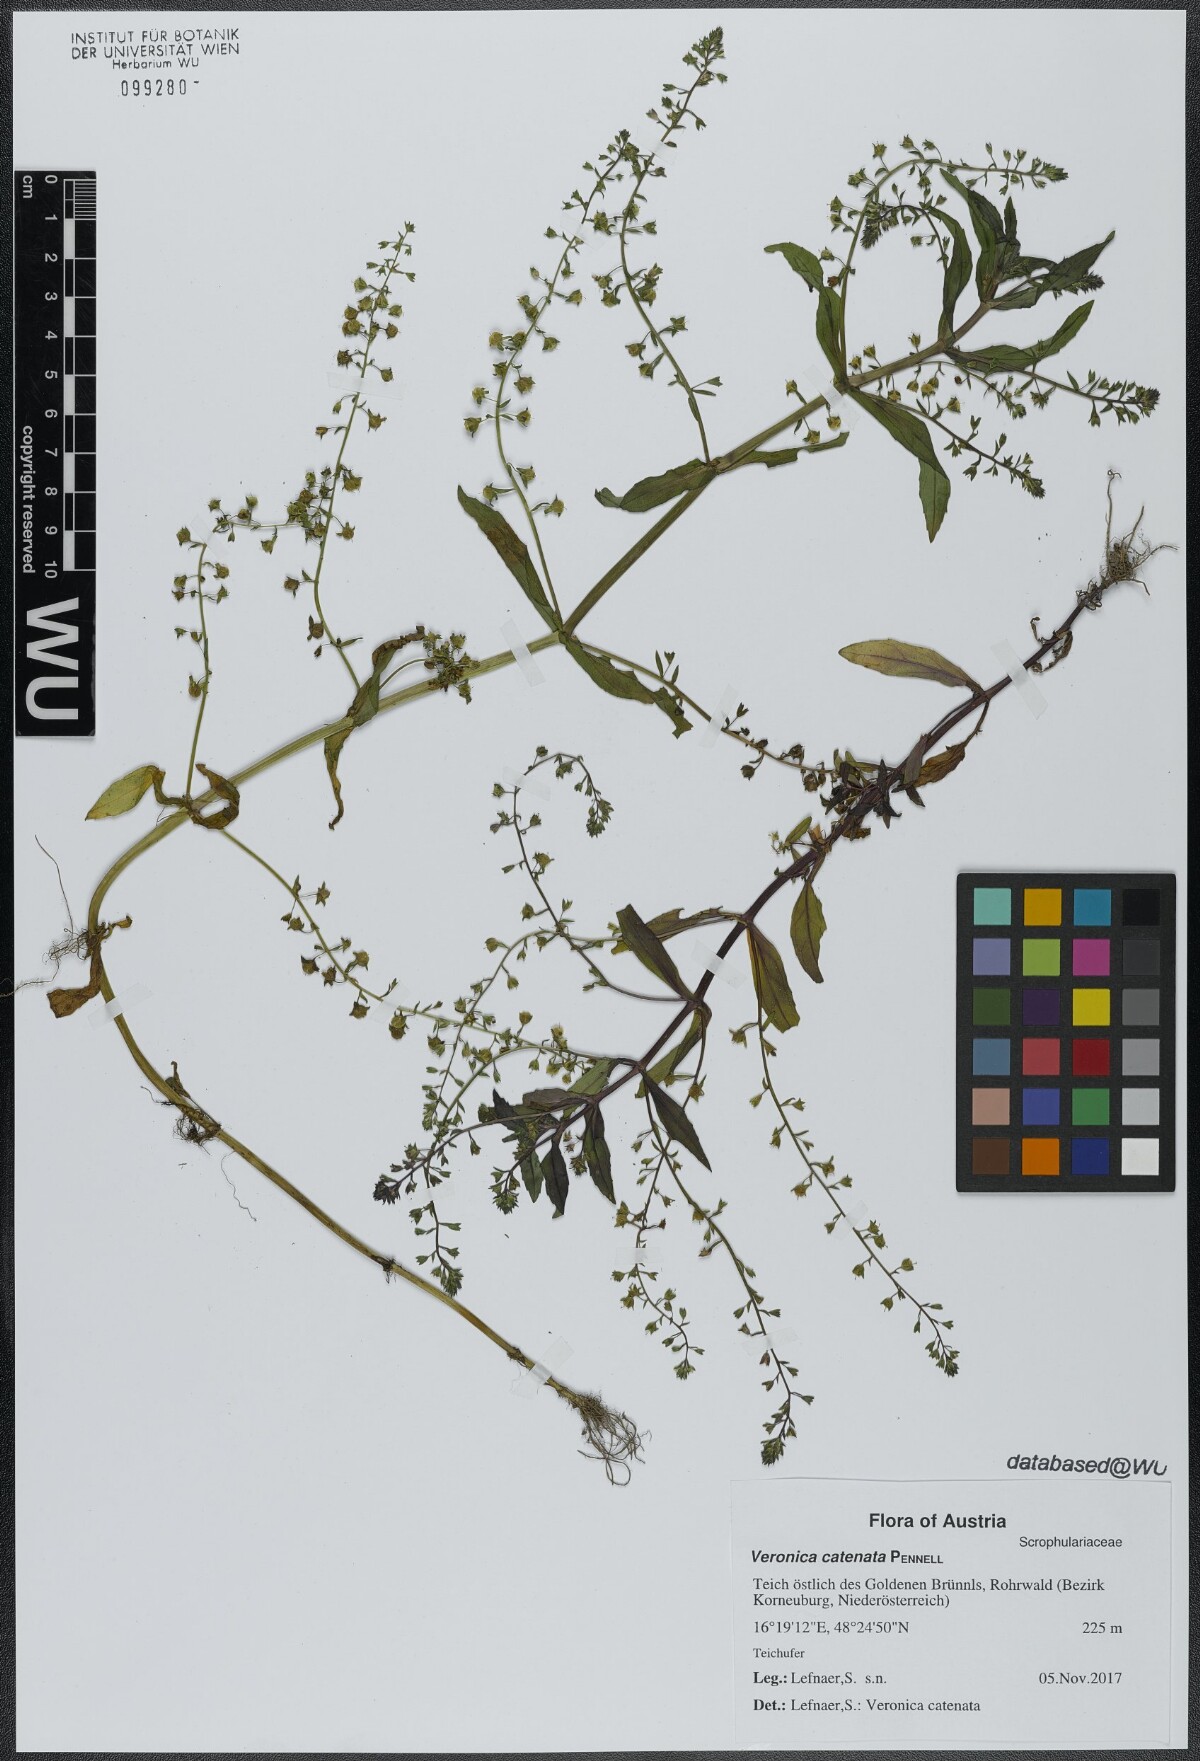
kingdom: Plantae
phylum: Tracheophyta
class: Magnoliopsida
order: Lamiales
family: Plantaginaceae
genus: Veronica
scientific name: Veronica catenata
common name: Pink water-speedwell
